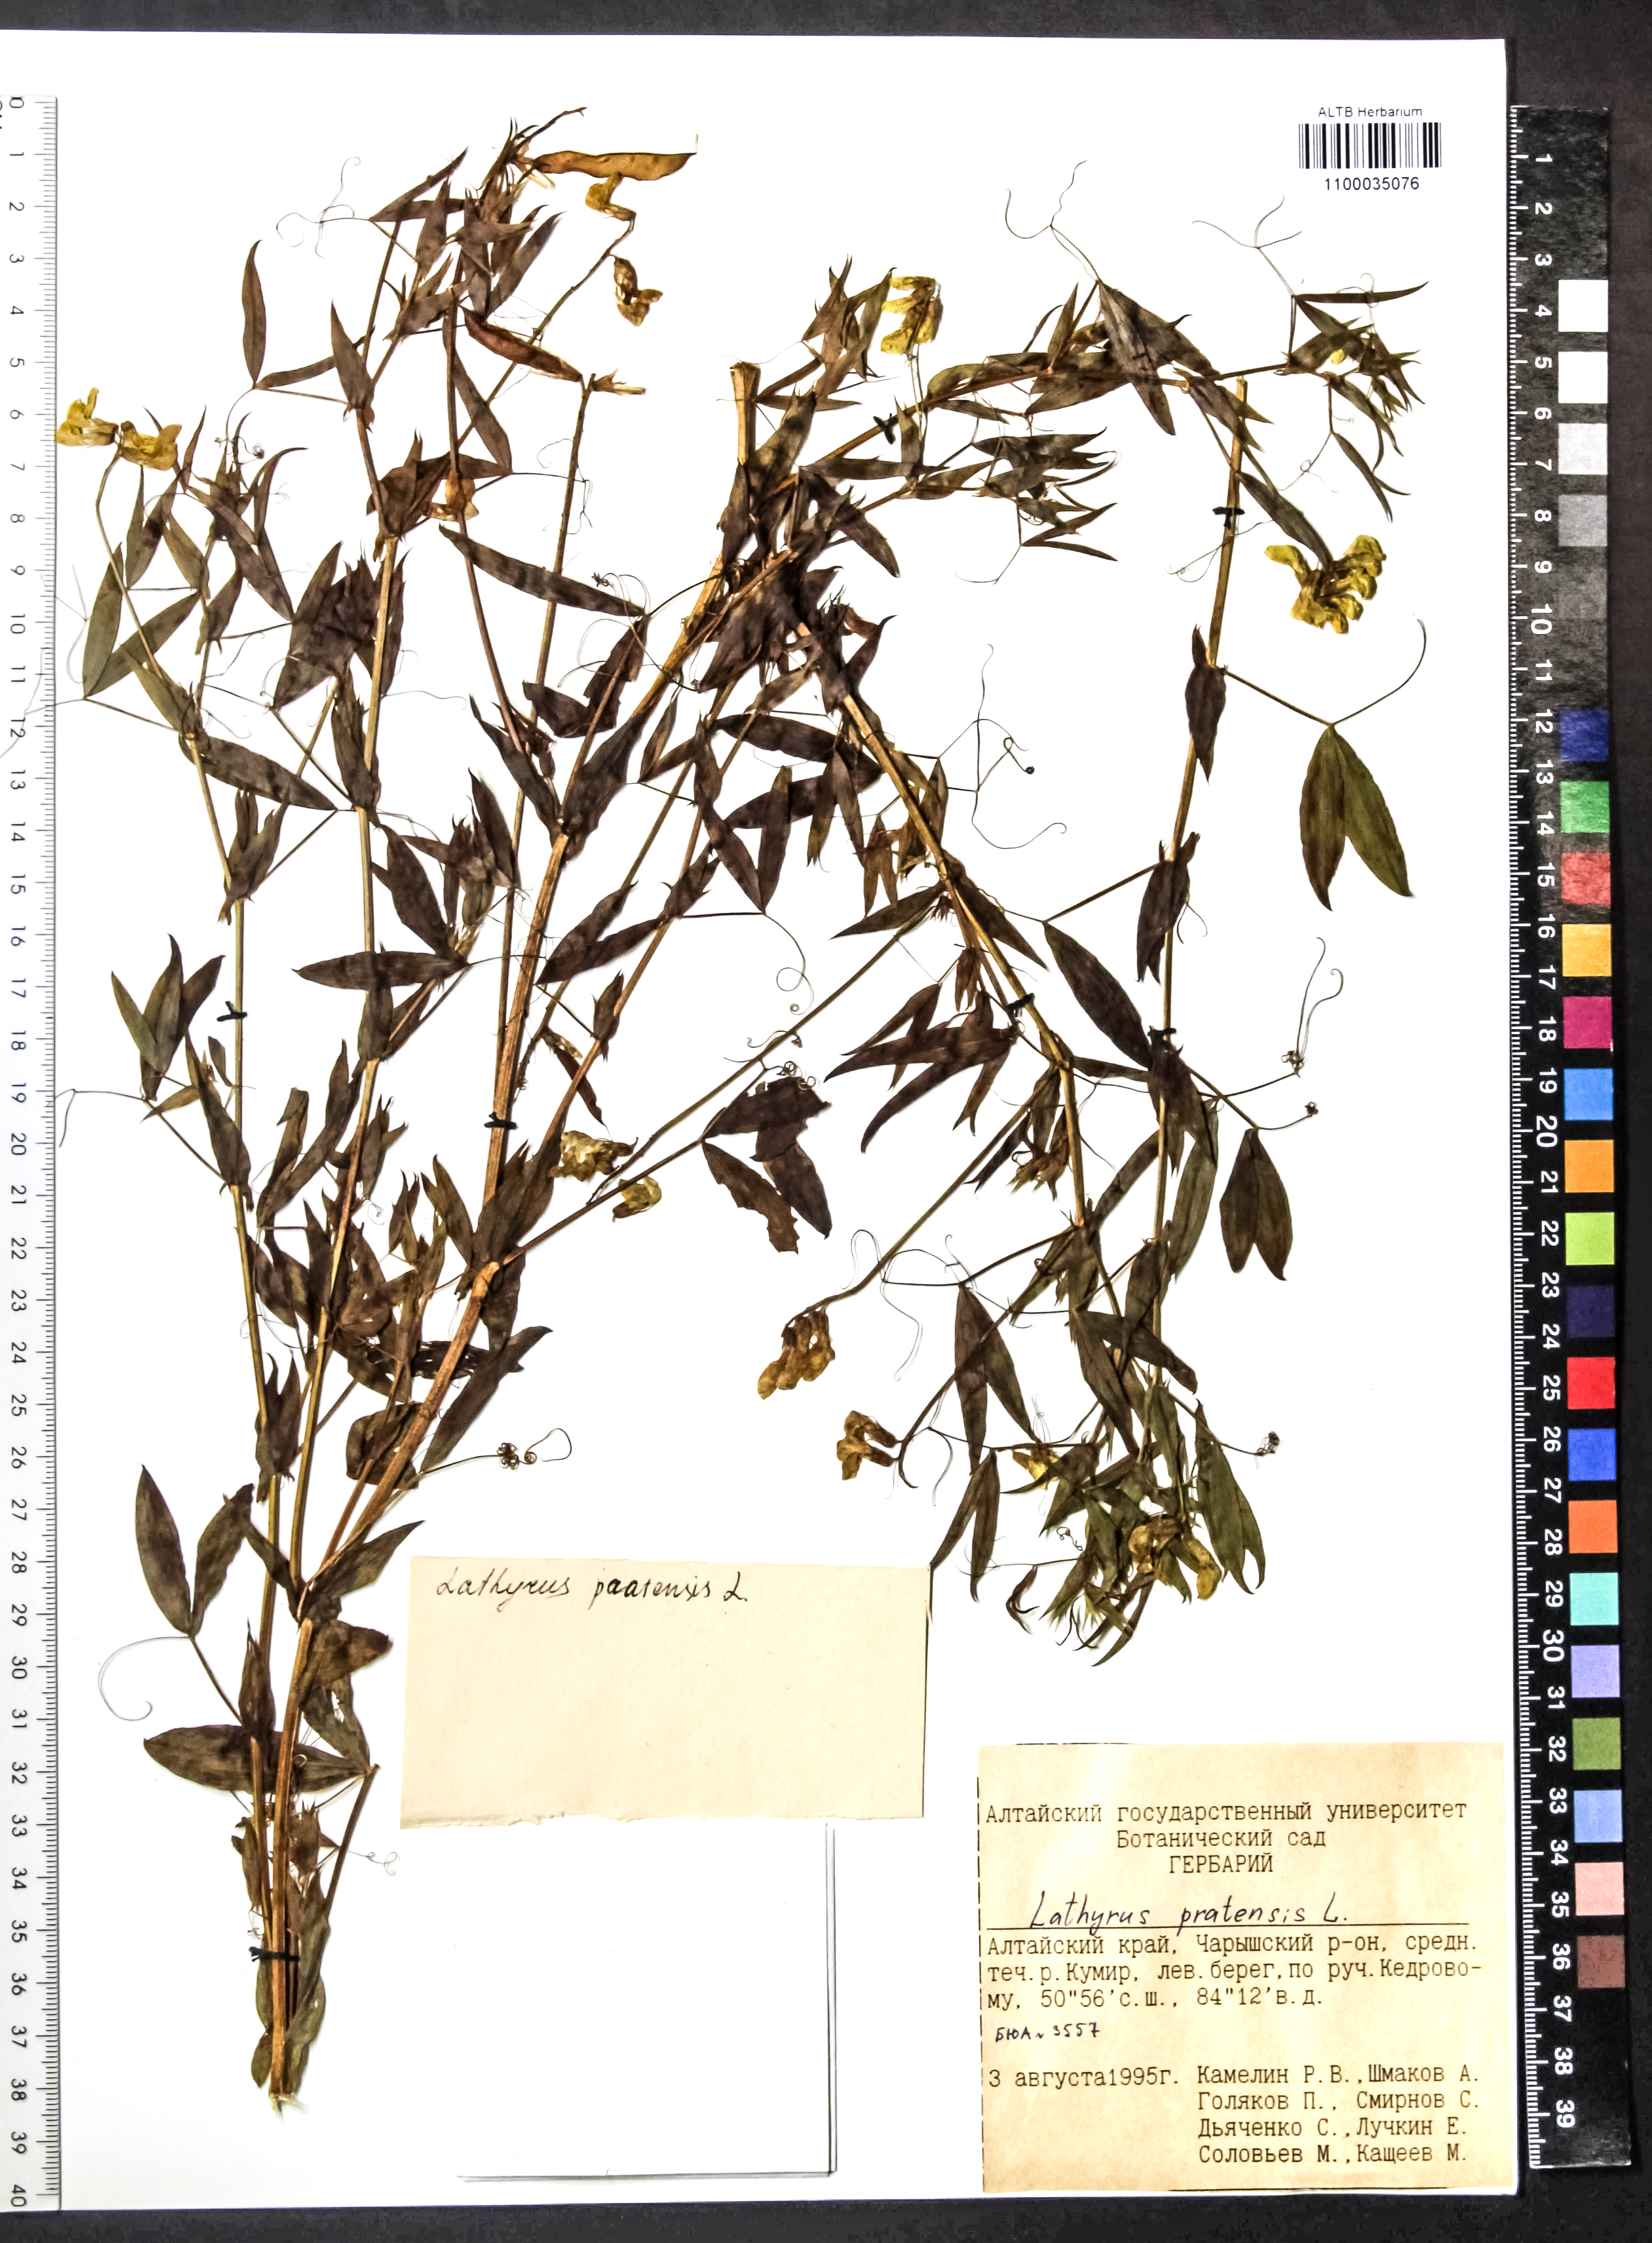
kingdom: Plantae
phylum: Tracheophyta
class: Magnoliopsida
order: Fabales
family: Fabaceae
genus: Lathyrus
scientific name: Lathyrus pratensis
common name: Meadow vetchling
